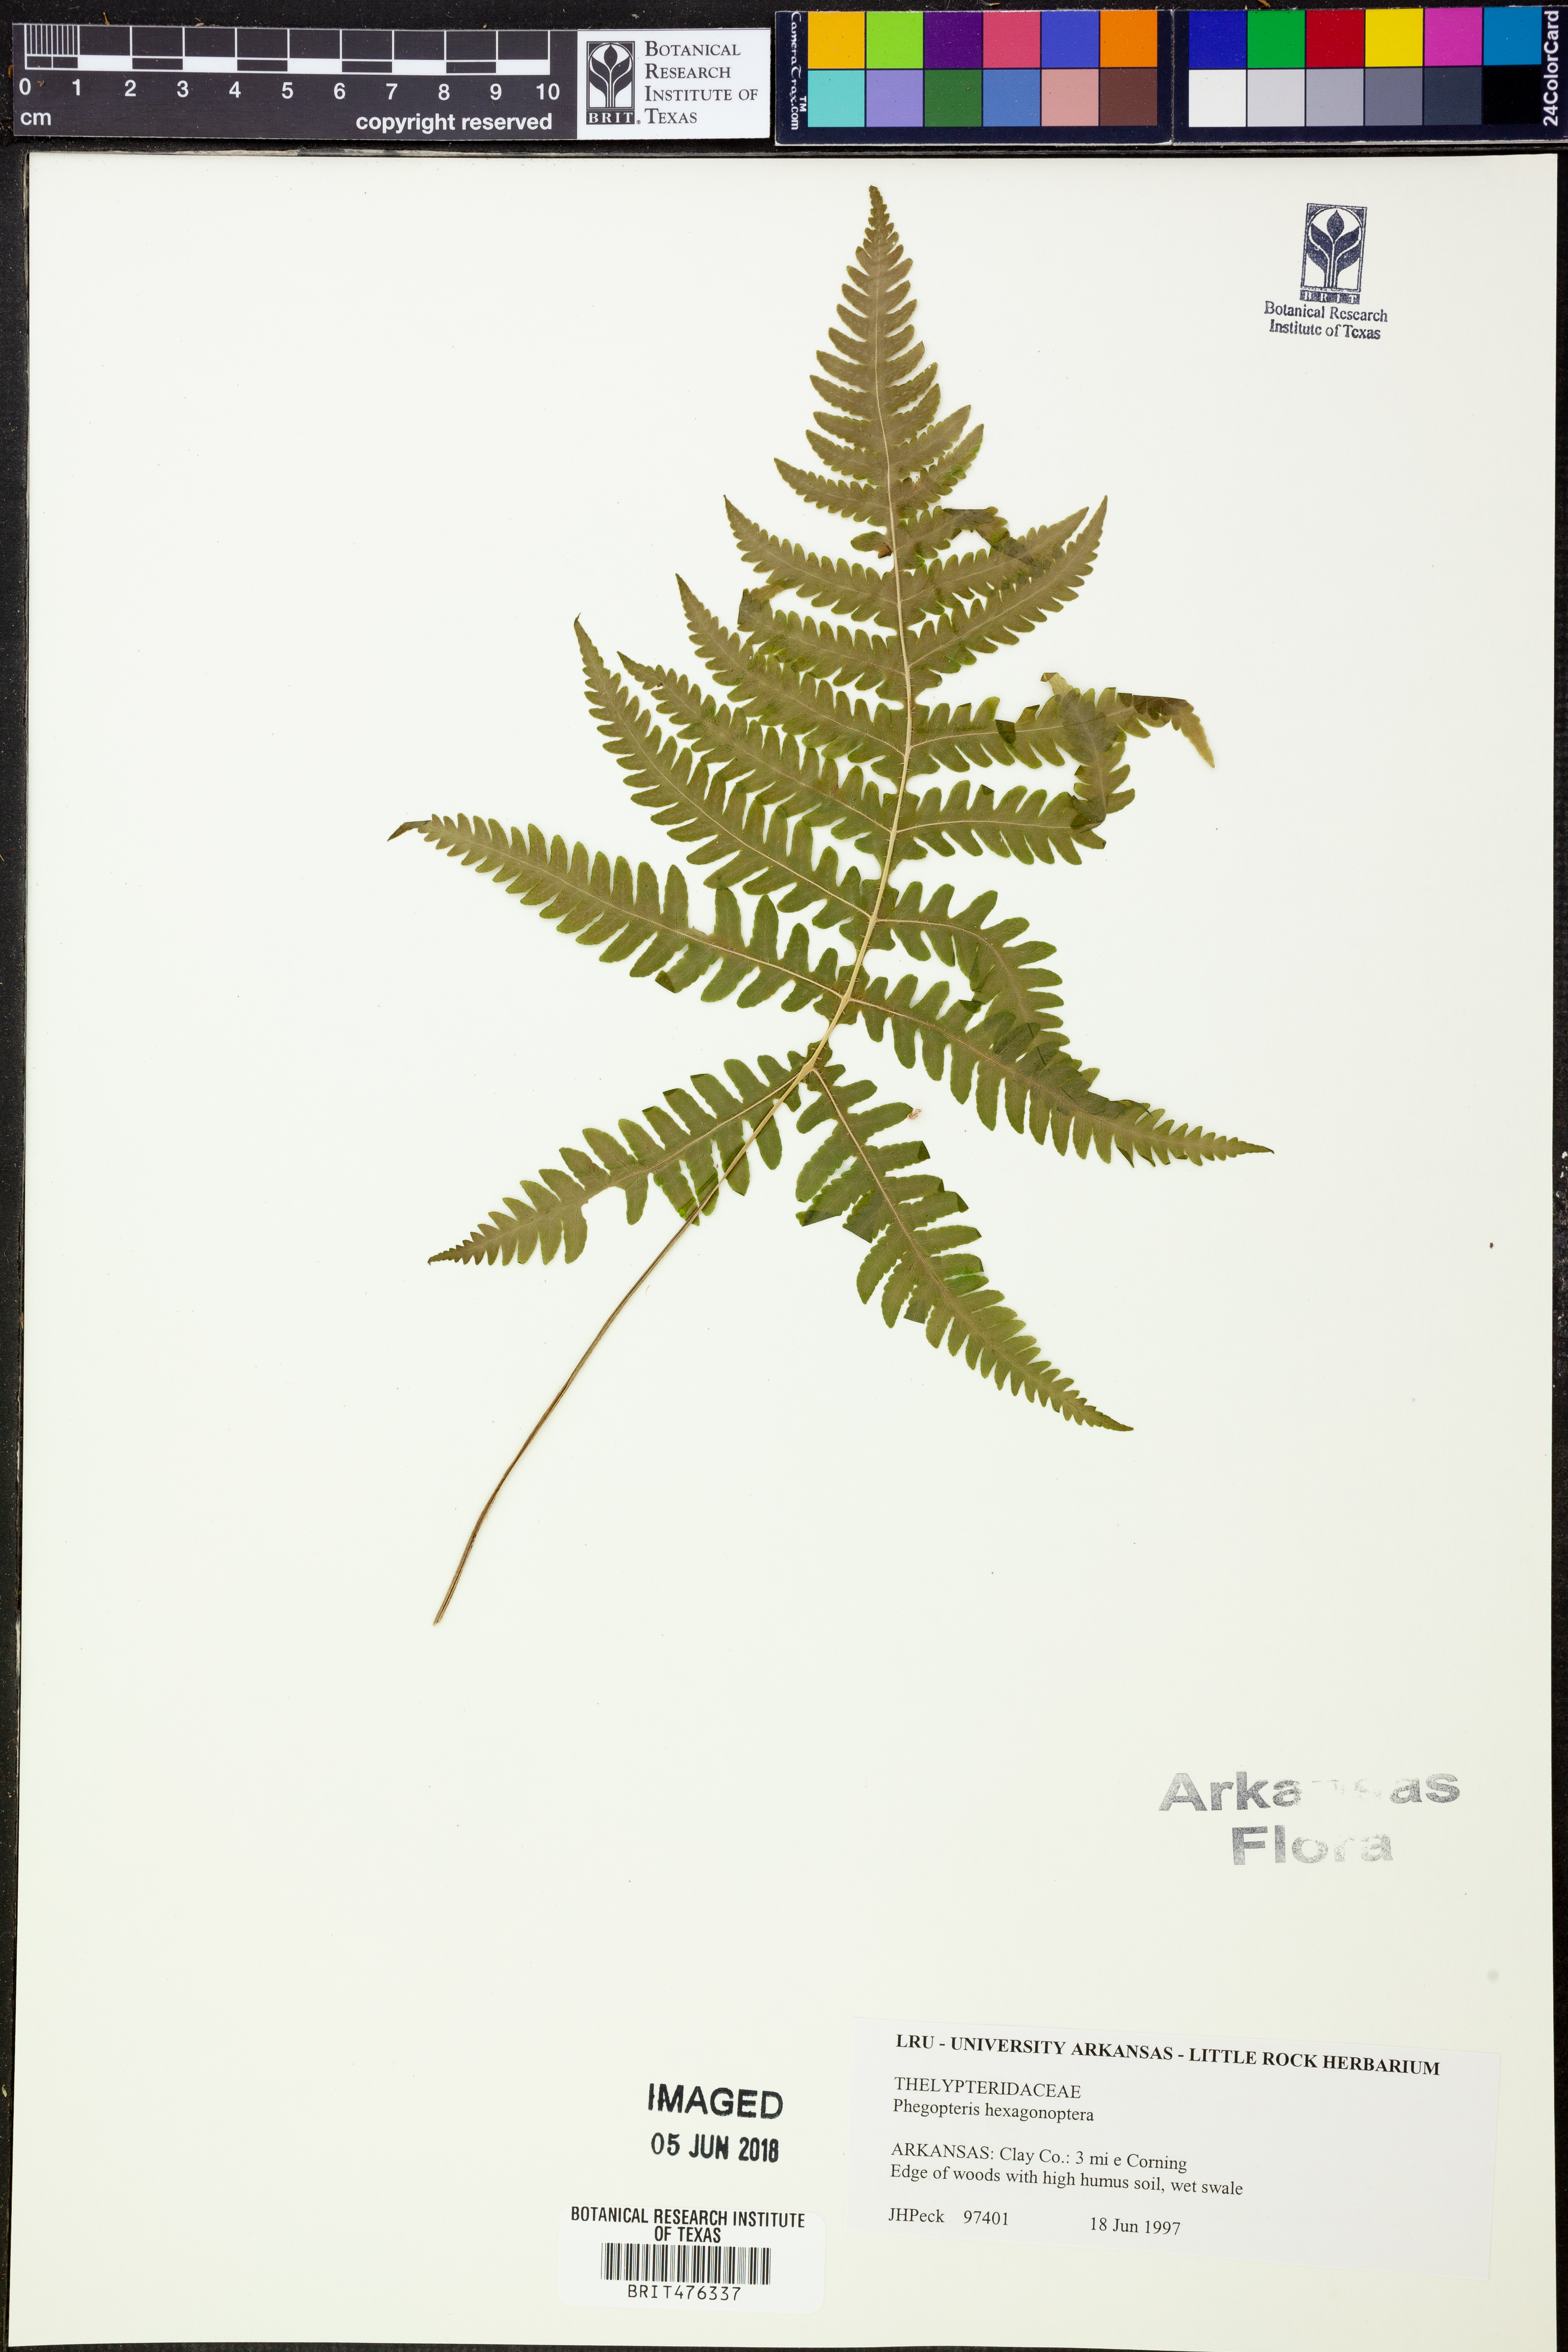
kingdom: Plantae
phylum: Tracheophyta
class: Polypodiopsida
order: Polypodiales
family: Thelypteridaceae
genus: Phegopteris
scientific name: Phegopteris hexagonoptera
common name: Broad beech fern
